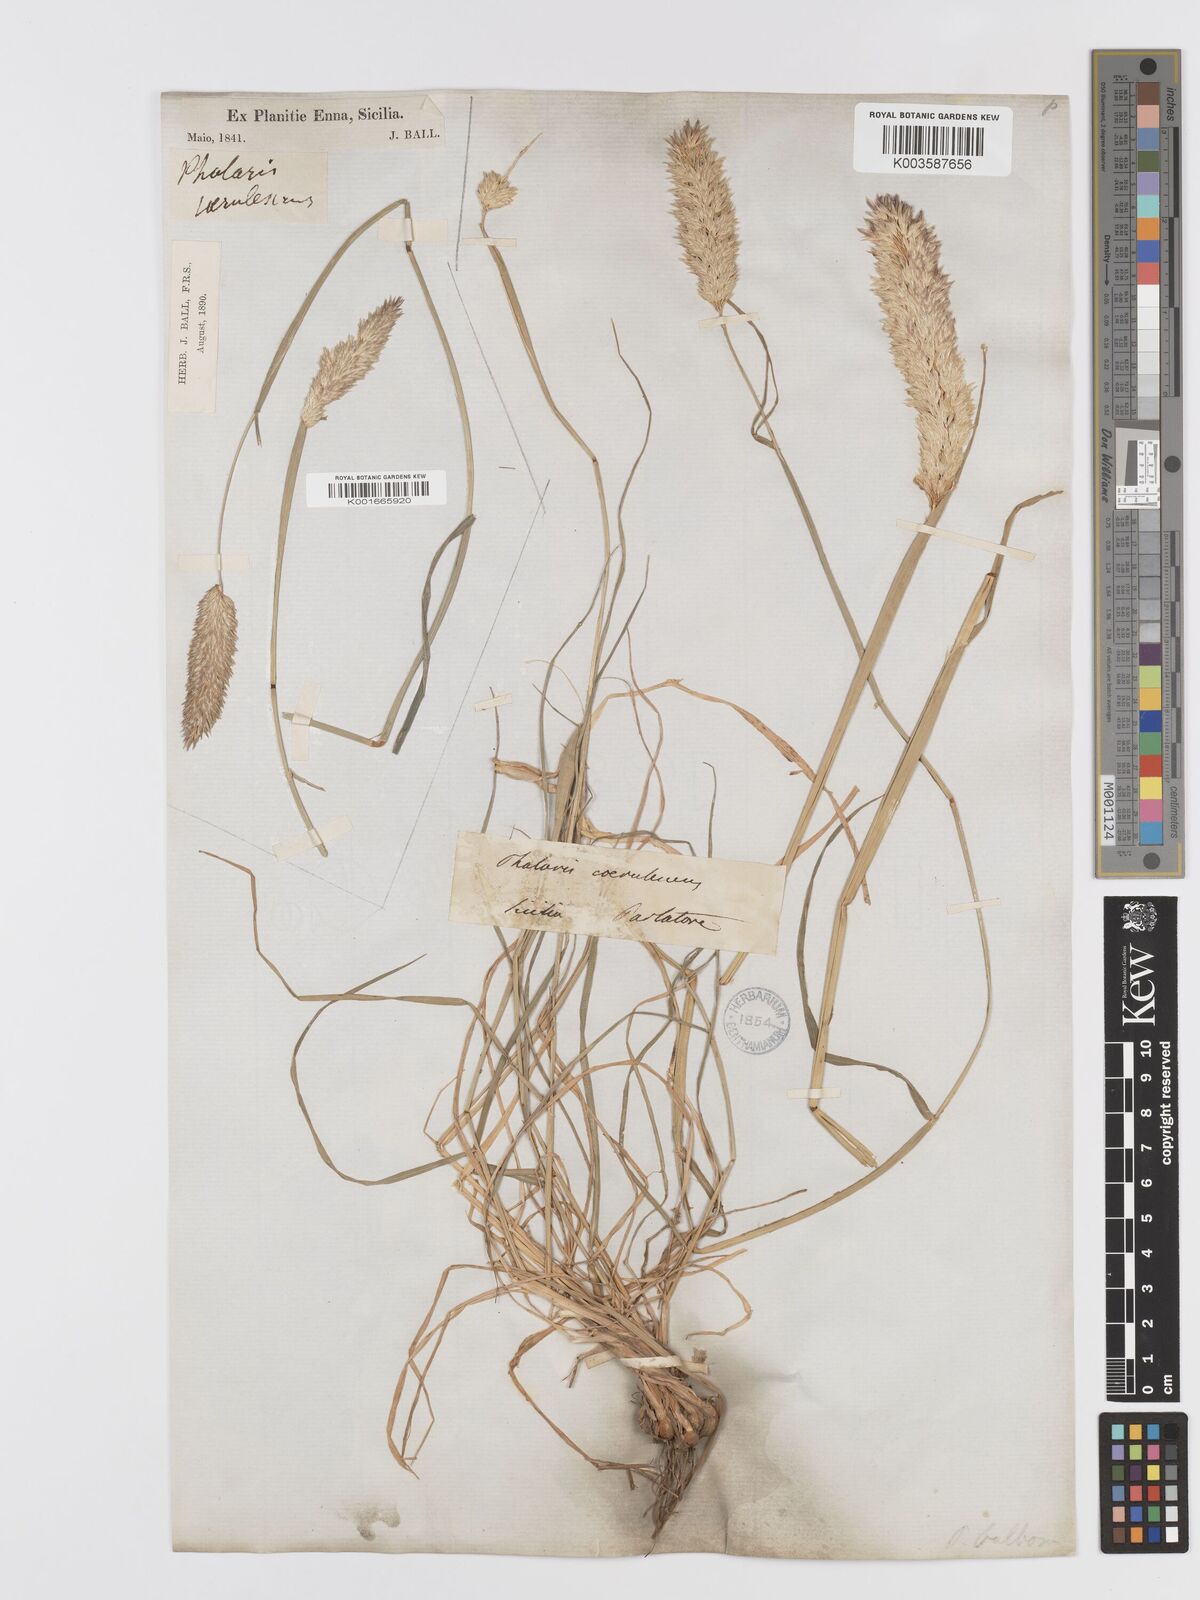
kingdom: Plantae
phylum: Tracheophyta
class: Liliopsida
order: Poales
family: Poaceae
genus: Phalaris
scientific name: Phalaris coerulescens
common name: Sunolgrass
